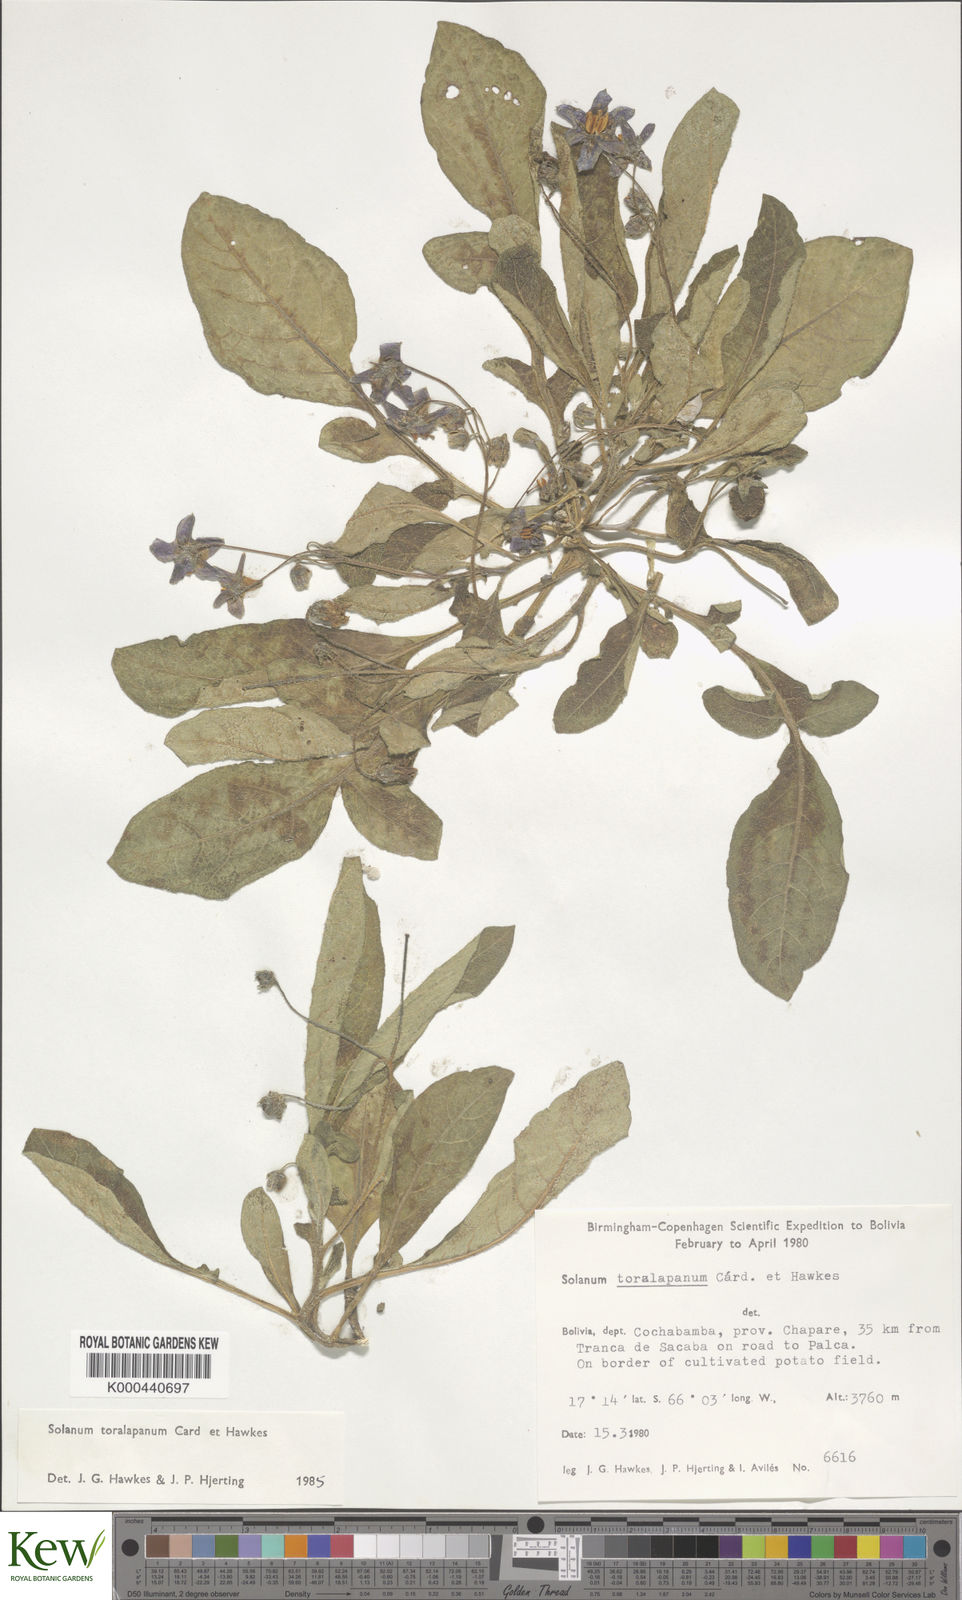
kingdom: Plantae
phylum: Tracheophyta
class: Magnoliopsida
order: Solanales
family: Solanaceae
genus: Solanum
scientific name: Solanum boliviense
